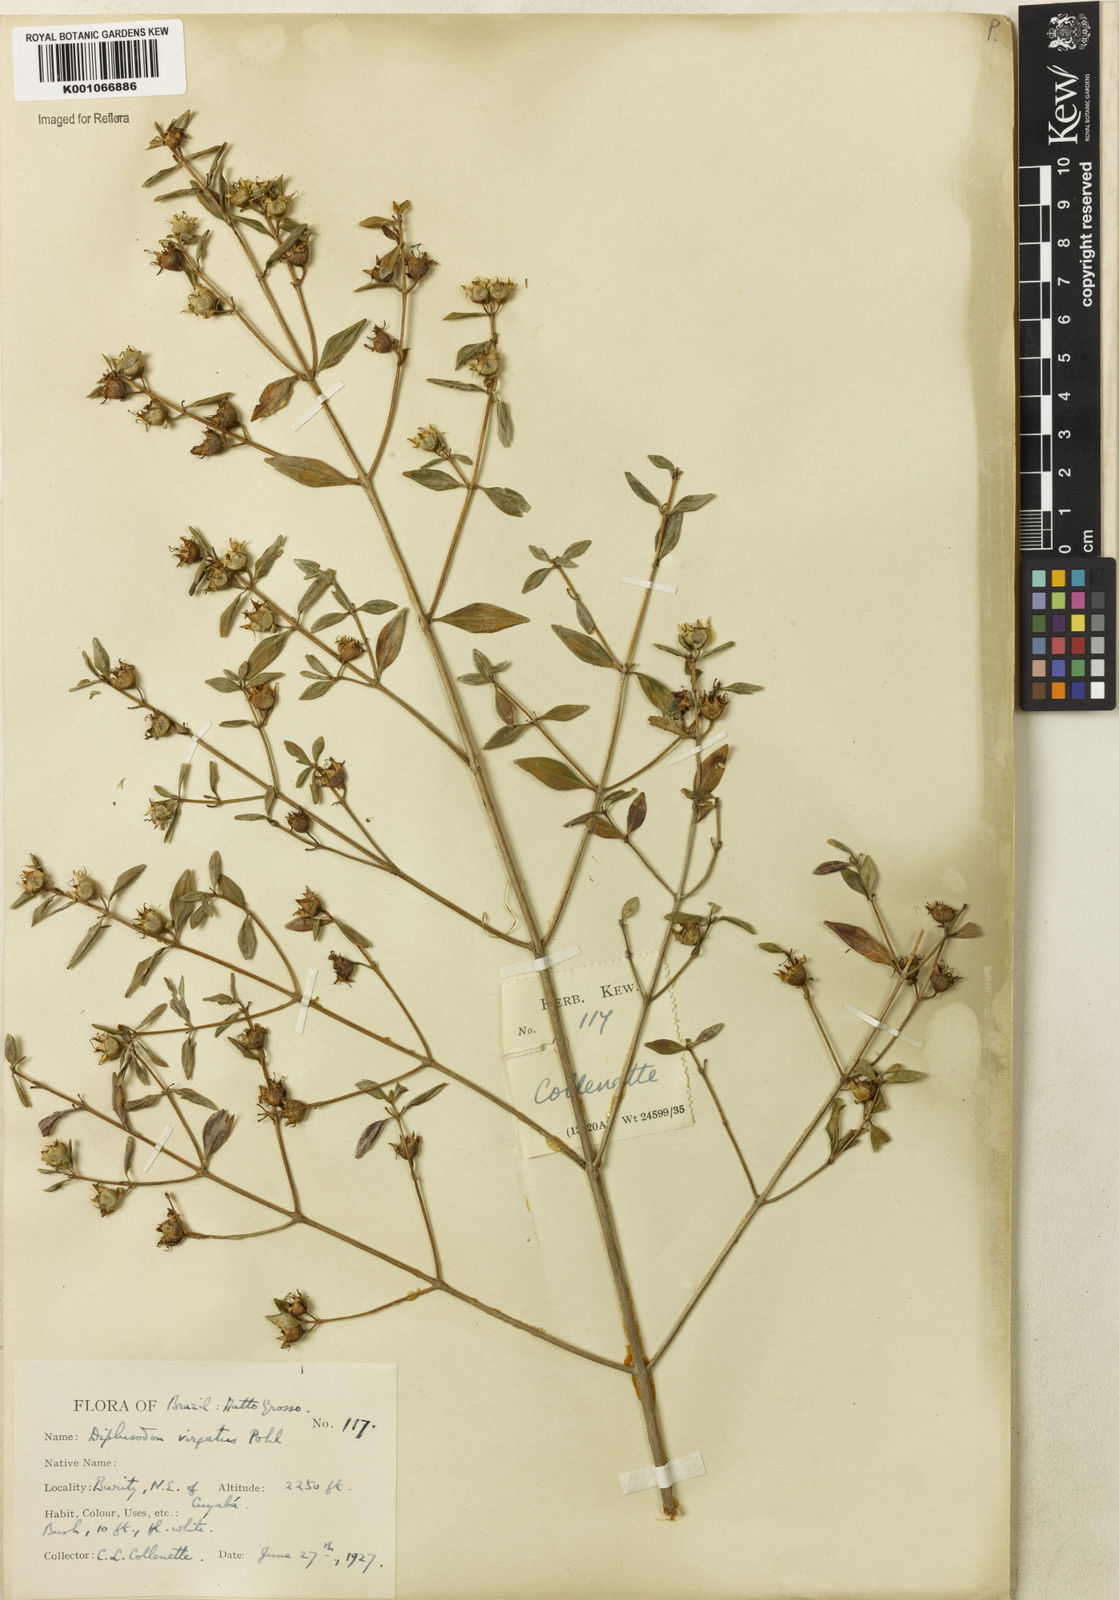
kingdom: Plantae
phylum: Tracheophyta
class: Magnoliopsida
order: Myrtales
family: Lythraceae
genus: Diplusodon
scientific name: Diplusodon virgatus
